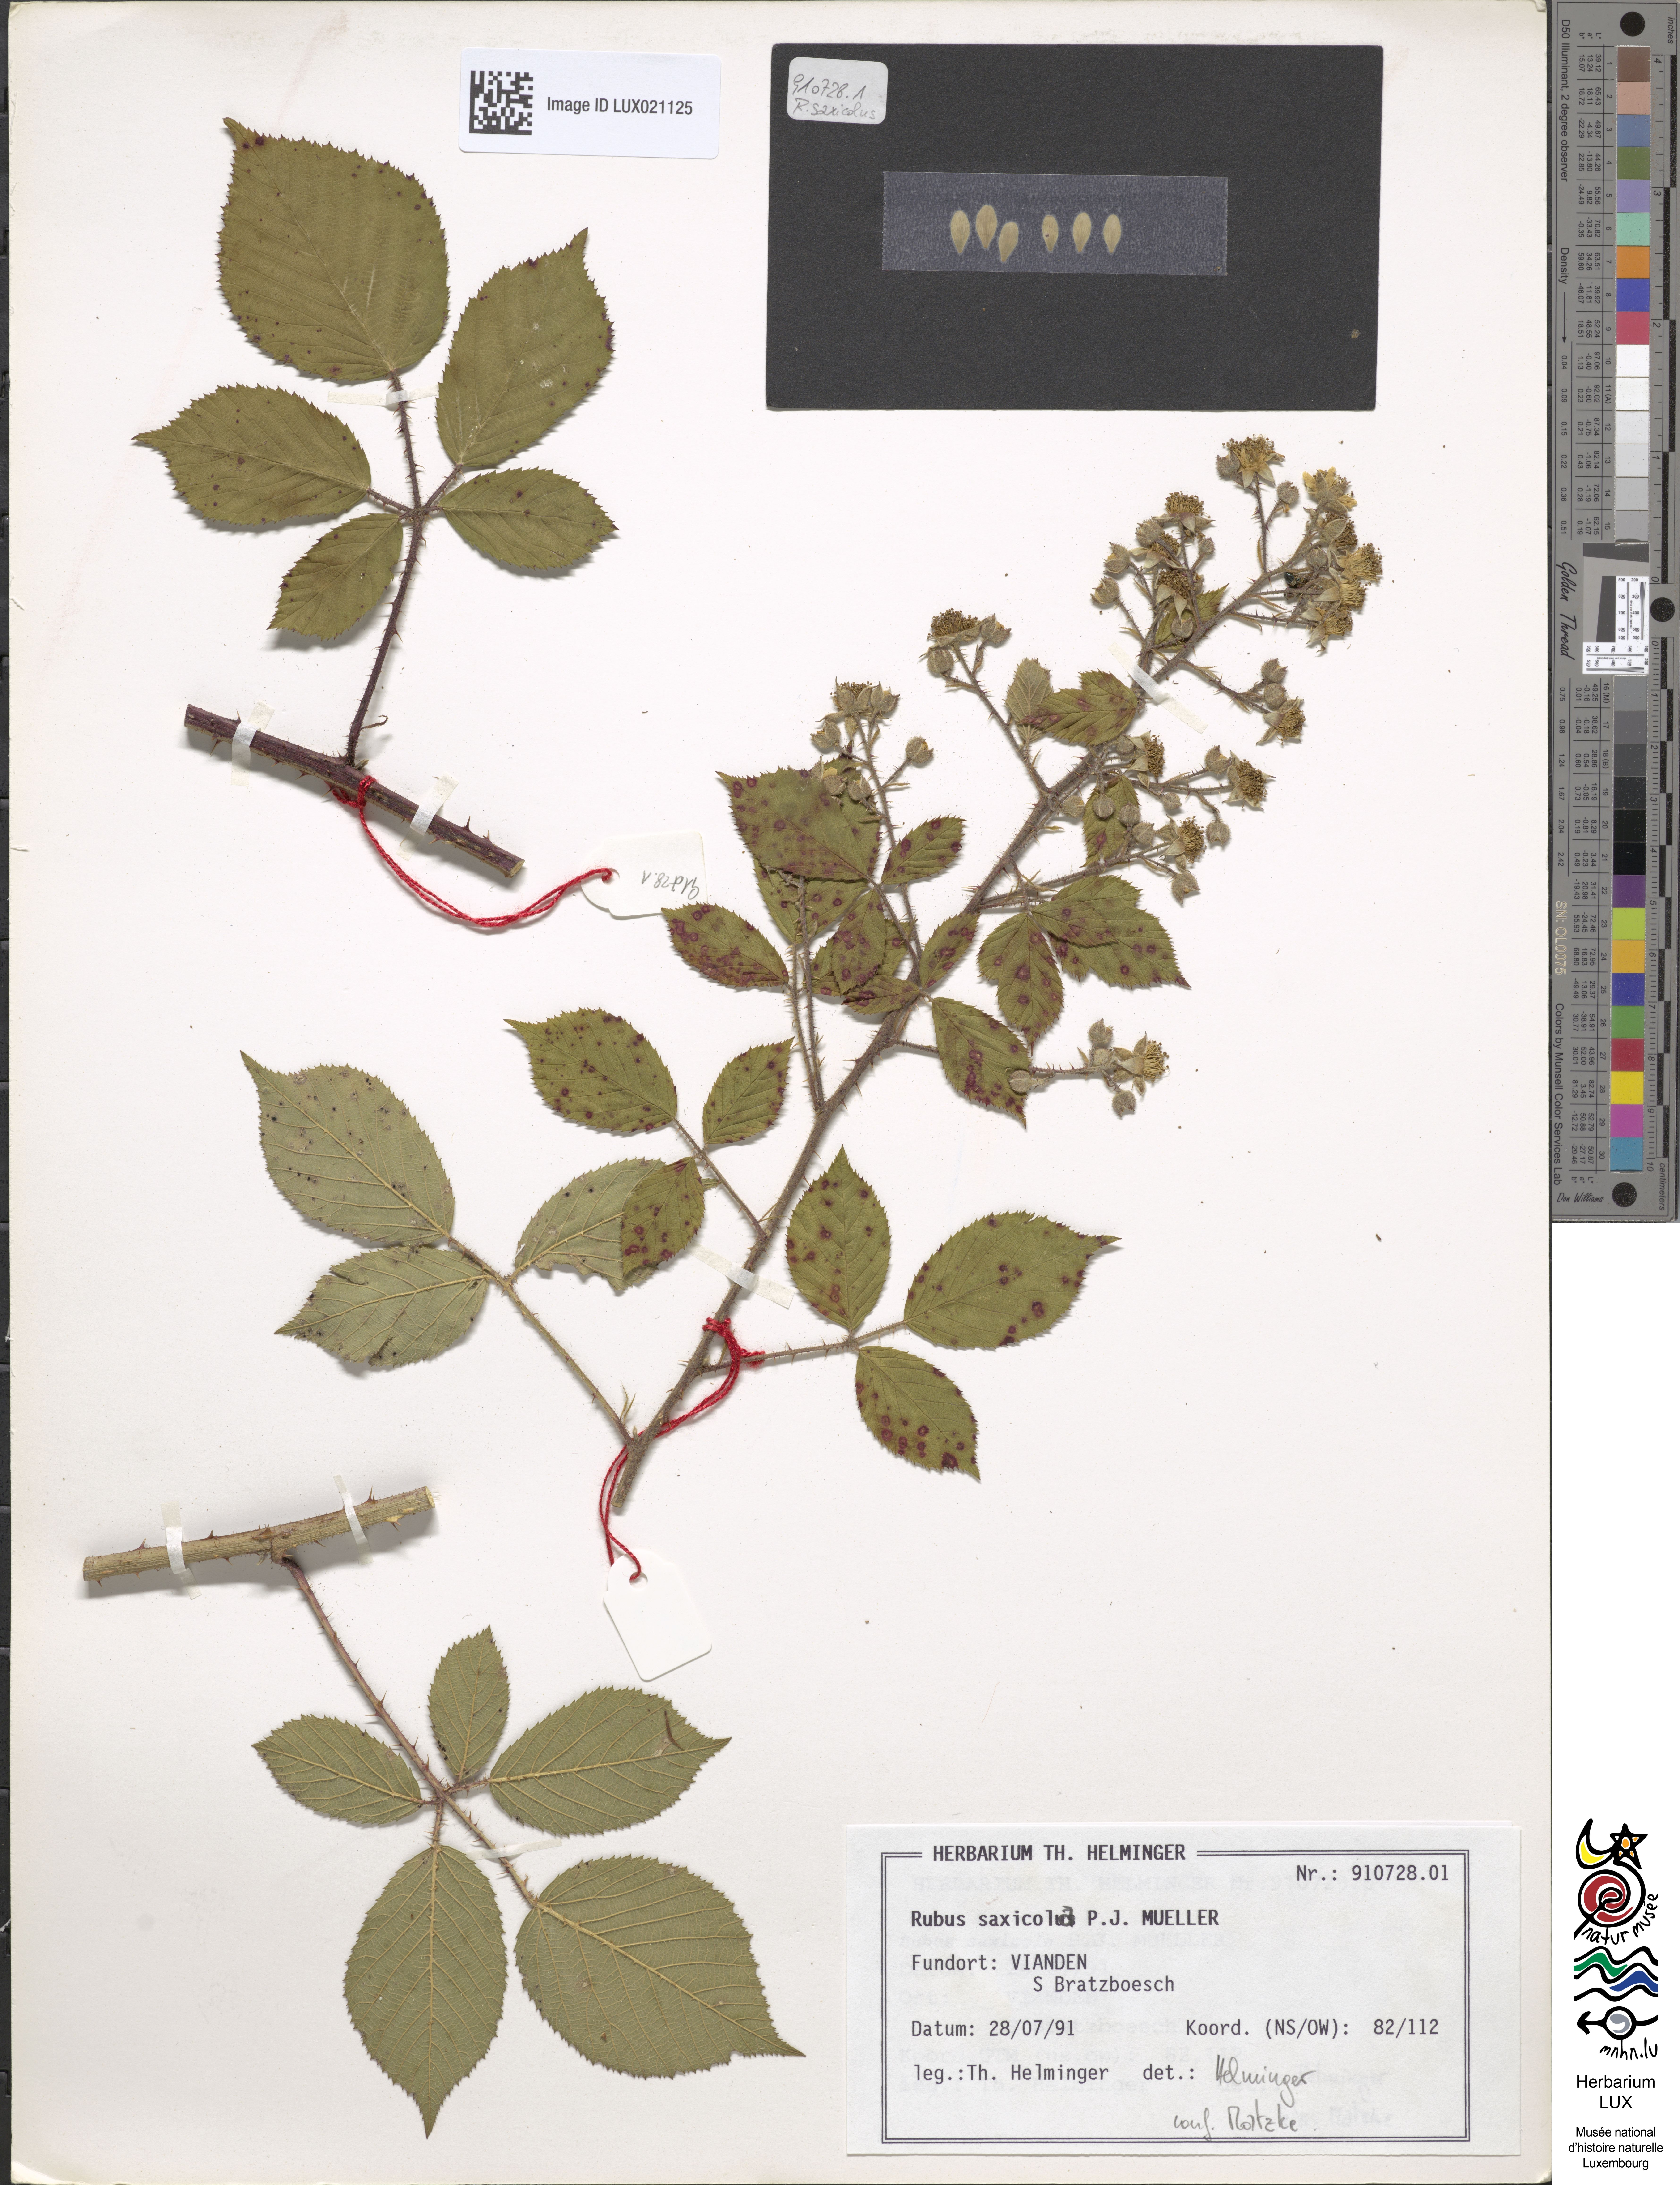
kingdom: Plantae
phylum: Tracheophyta
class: Magnoliopsida
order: Rosales
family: Rosaceae
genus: Rubus
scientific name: Rubus saxicola
